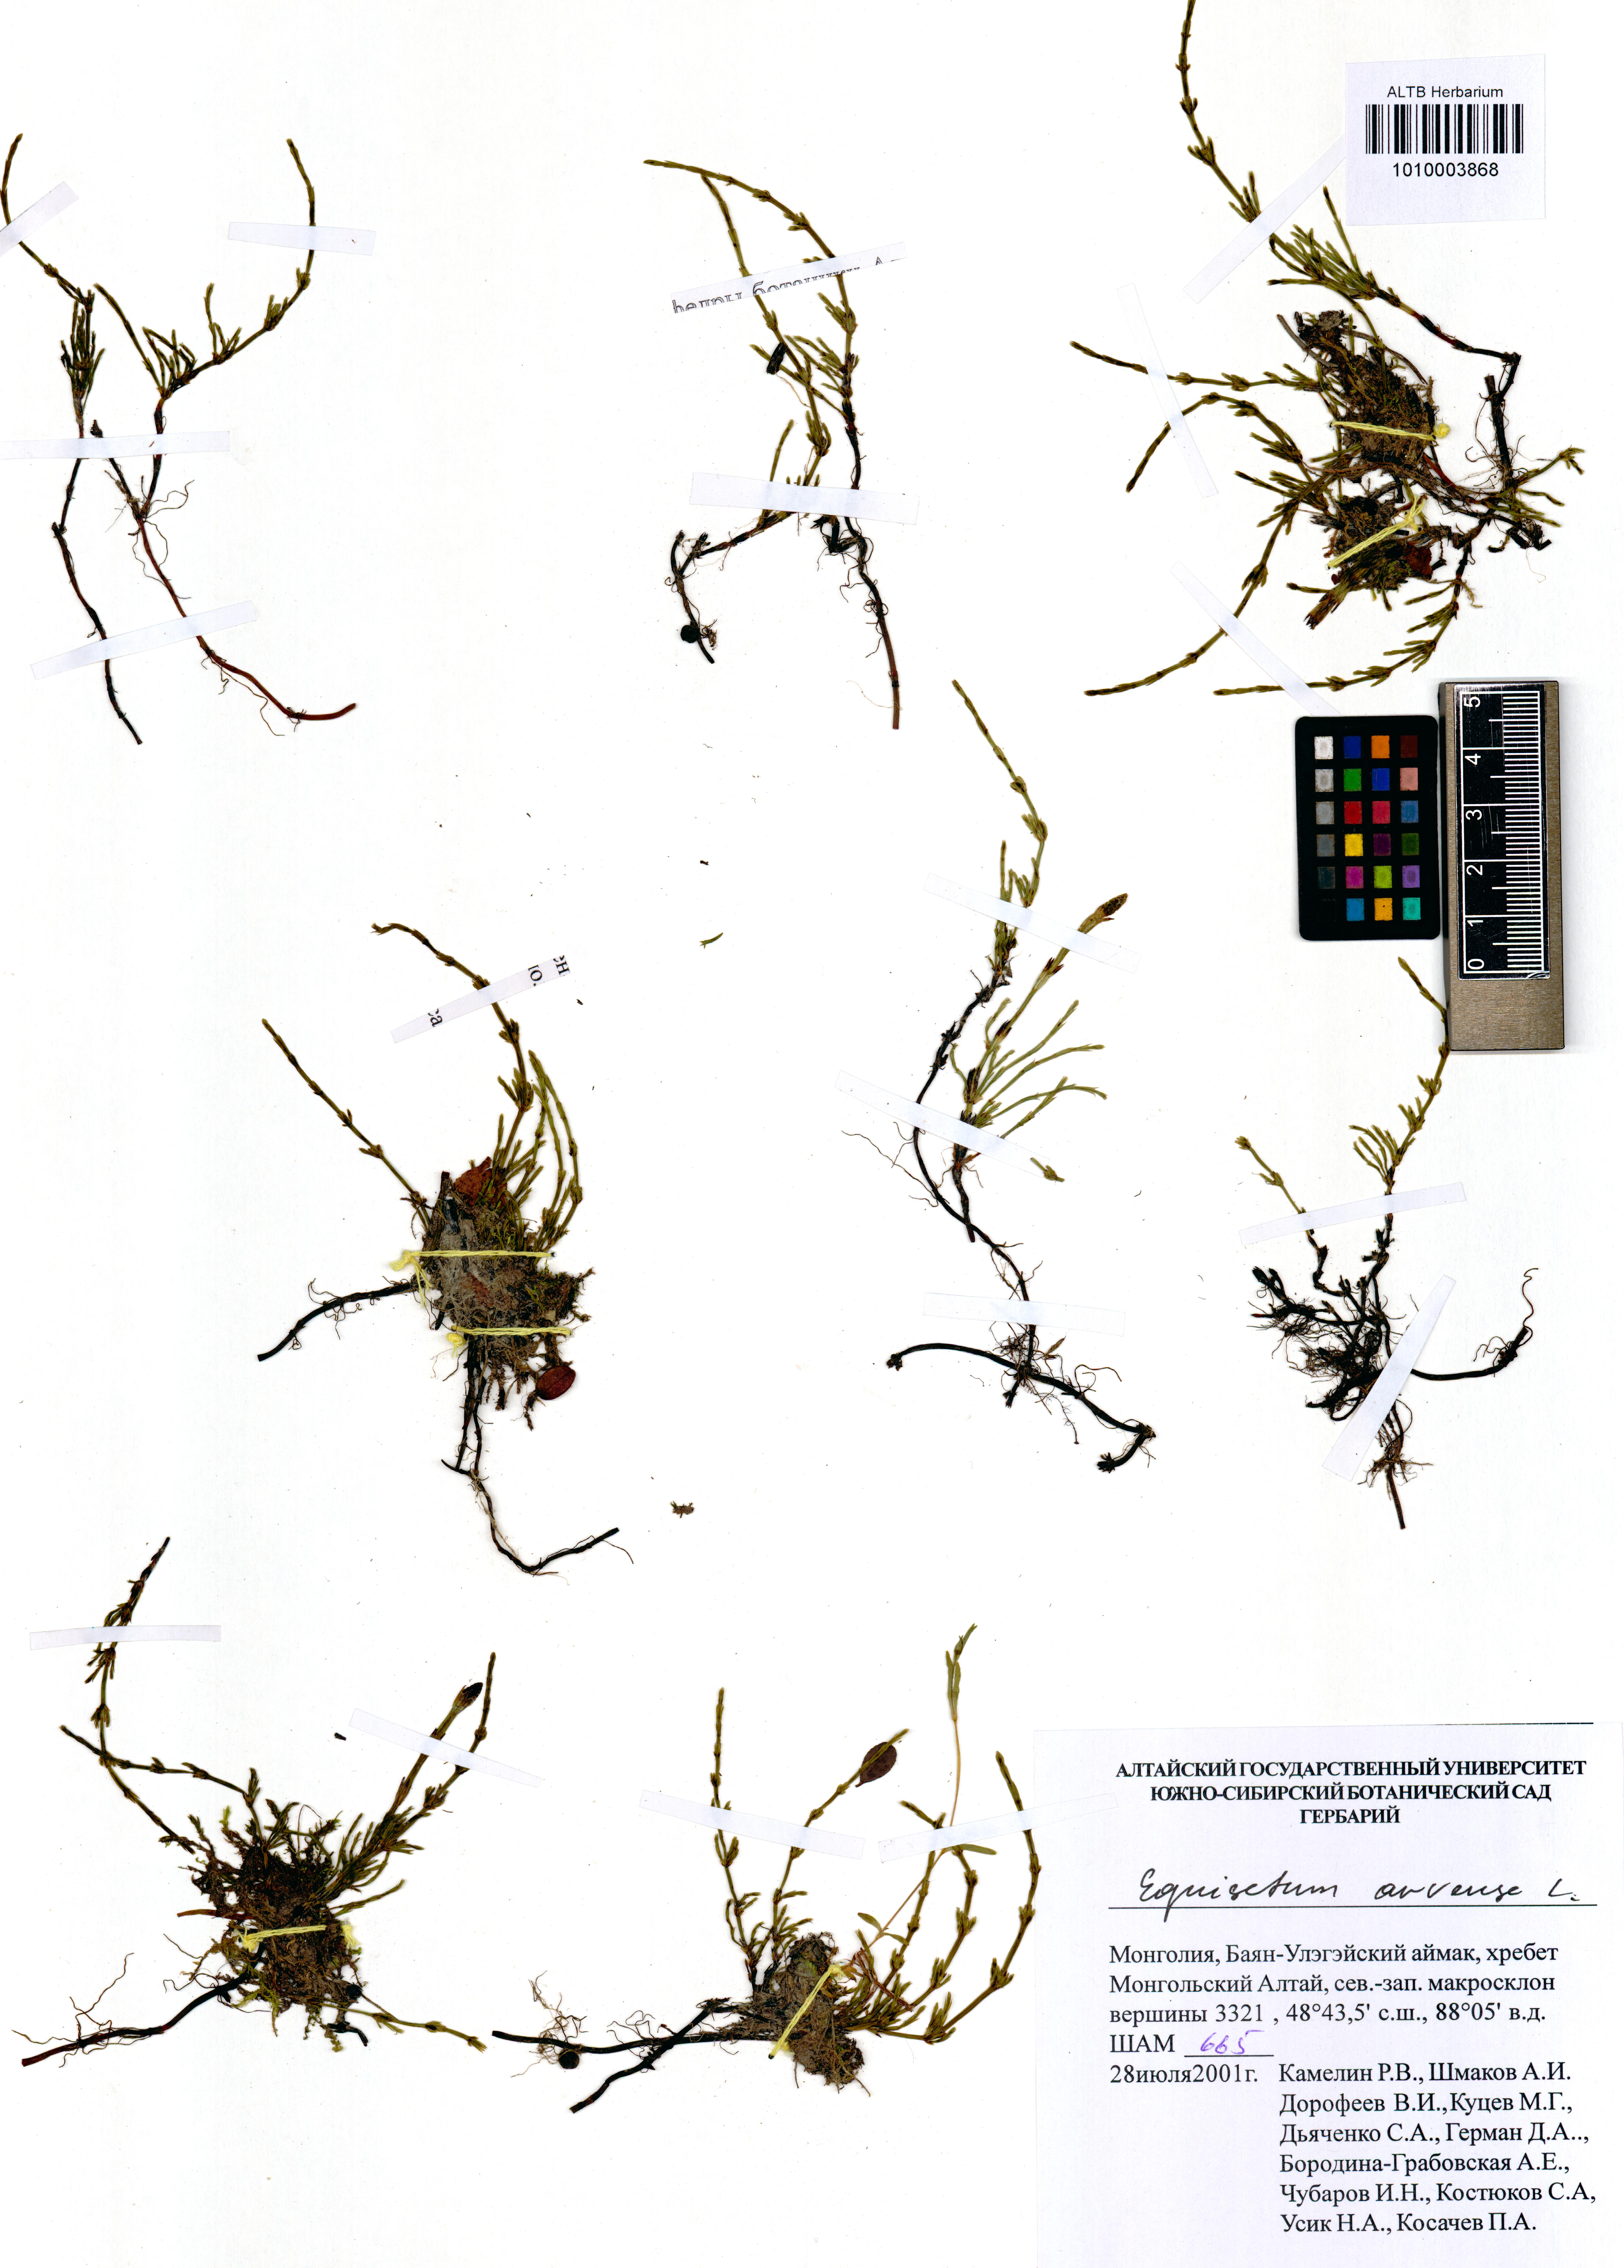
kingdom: Plantae
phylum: Tracheophyta
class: Polypodiopsida
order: Equisetales
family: Equisetaceae
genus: Equisetum
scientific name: Equisetum arvense
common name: Field horsetail
